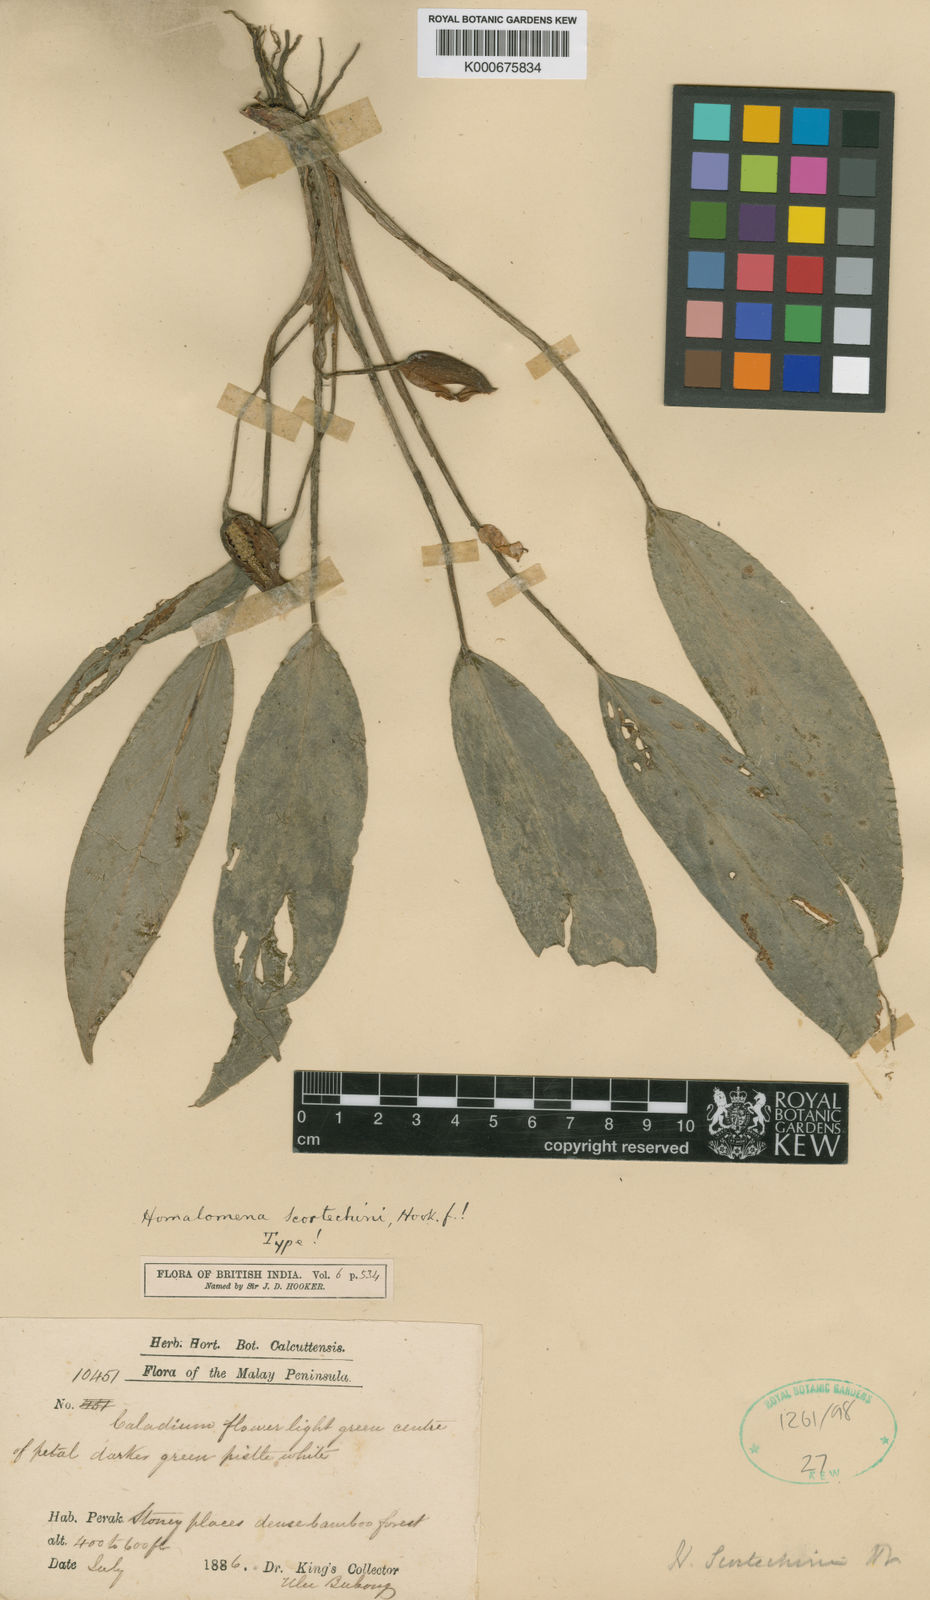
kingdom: Plantae
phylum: Tracheophyta
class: Liliopsida
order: Alismatales
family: Araceae
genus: Homalomena
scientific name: Homalomena scortechinii
